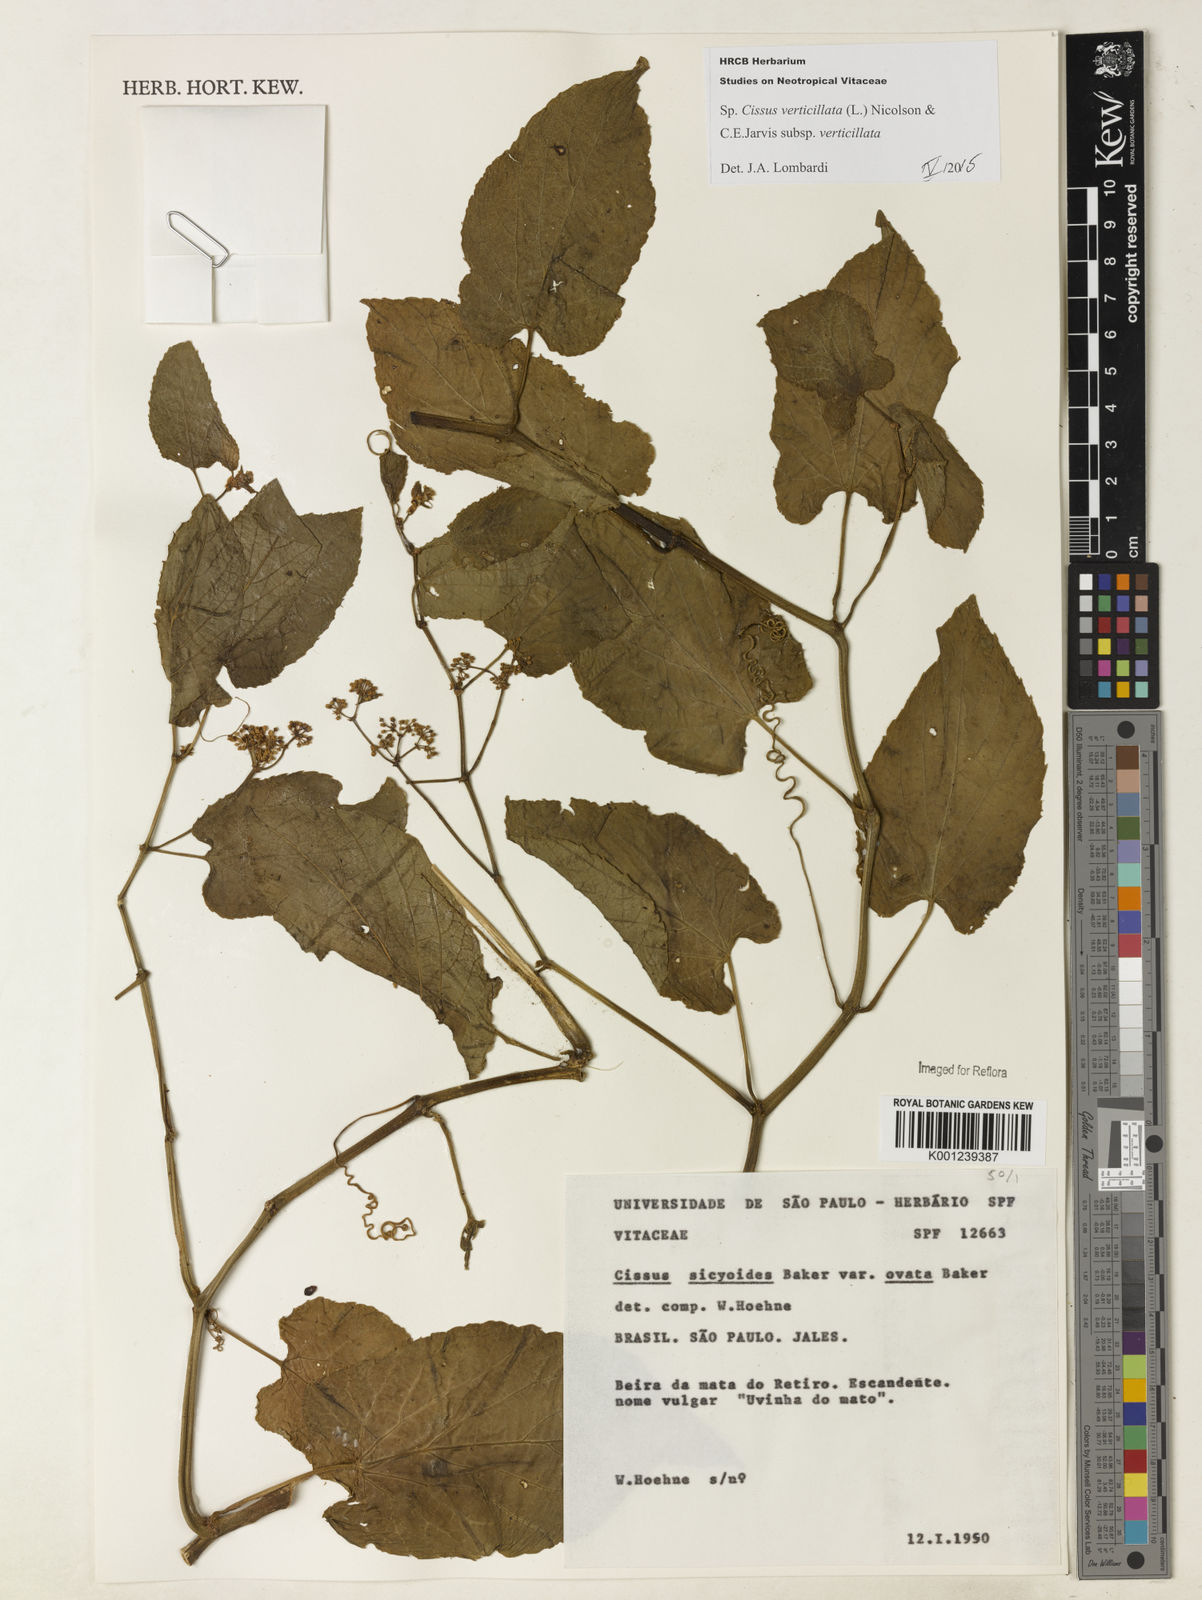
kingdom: Plantae
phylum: Tracheophyta
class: Magnoliopsida
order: Vitales
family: Vitaceae
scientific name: Vitaceae
